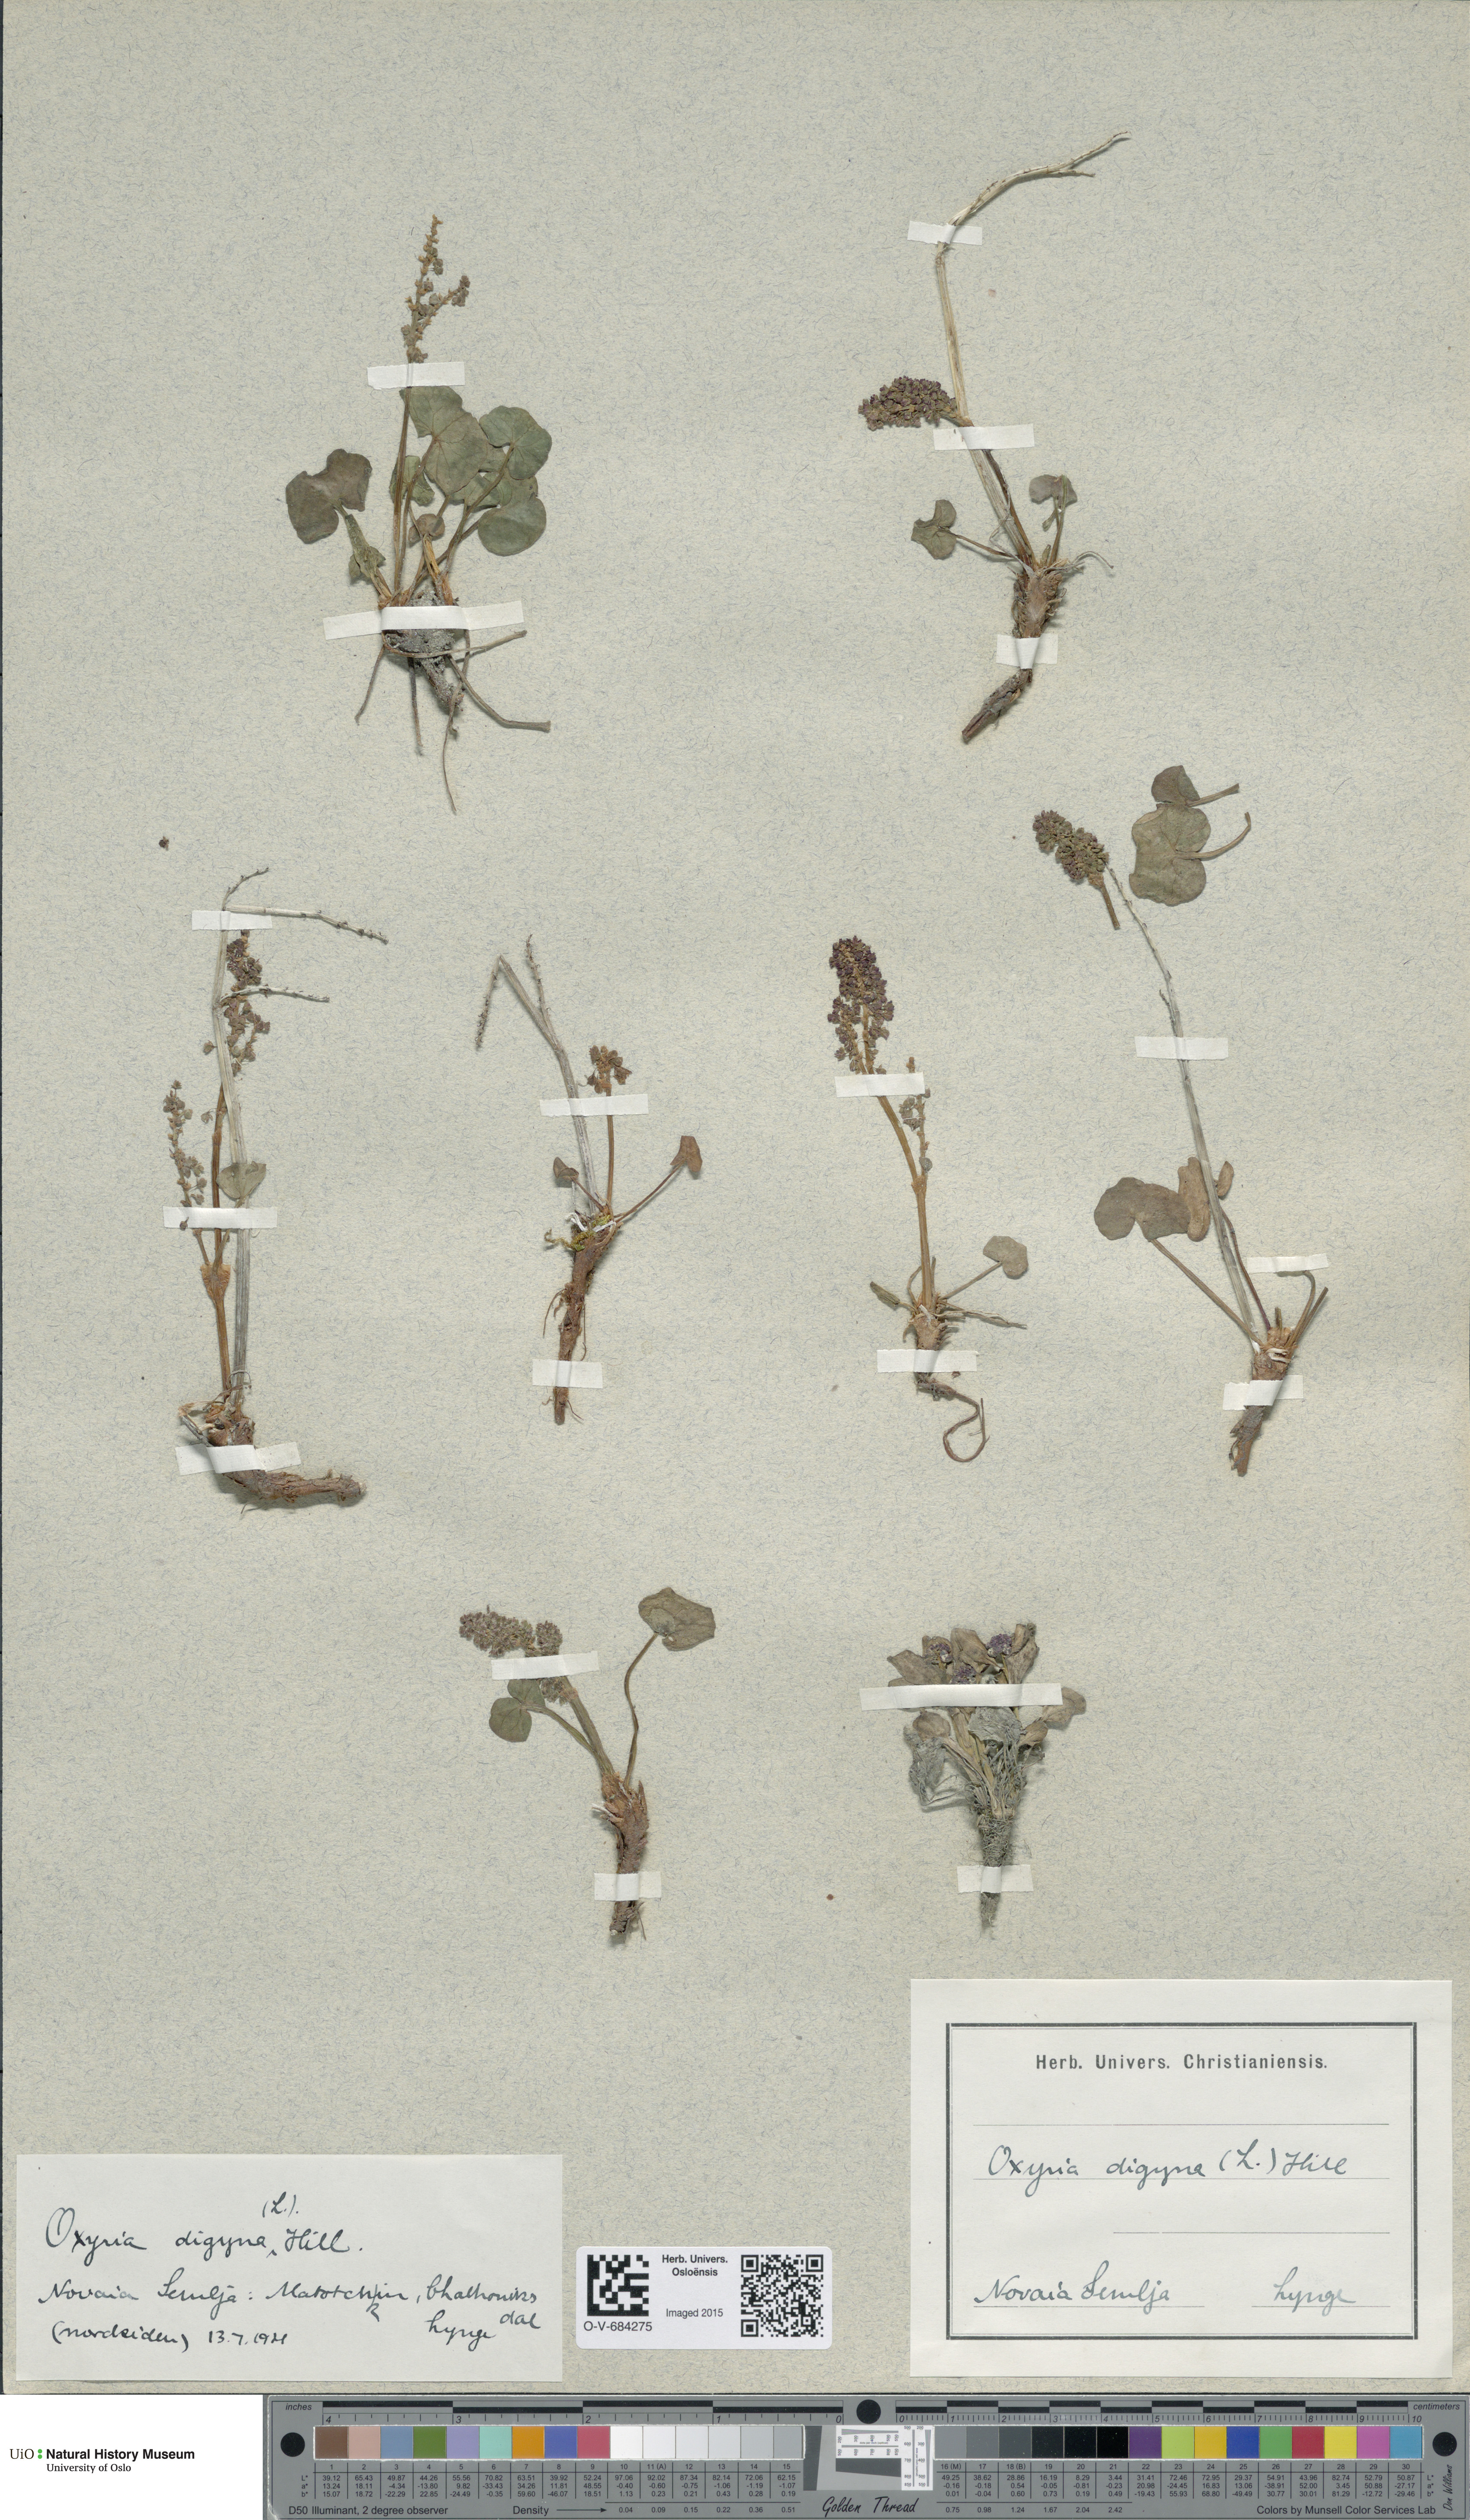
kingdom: Plantae
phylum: Tracheophyta
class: Magnoliopsida
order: Caryophyllales
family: Polygonaceae
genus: Oxyria
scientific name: Oxyria digyna
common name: Alpine mountain-sorrel
